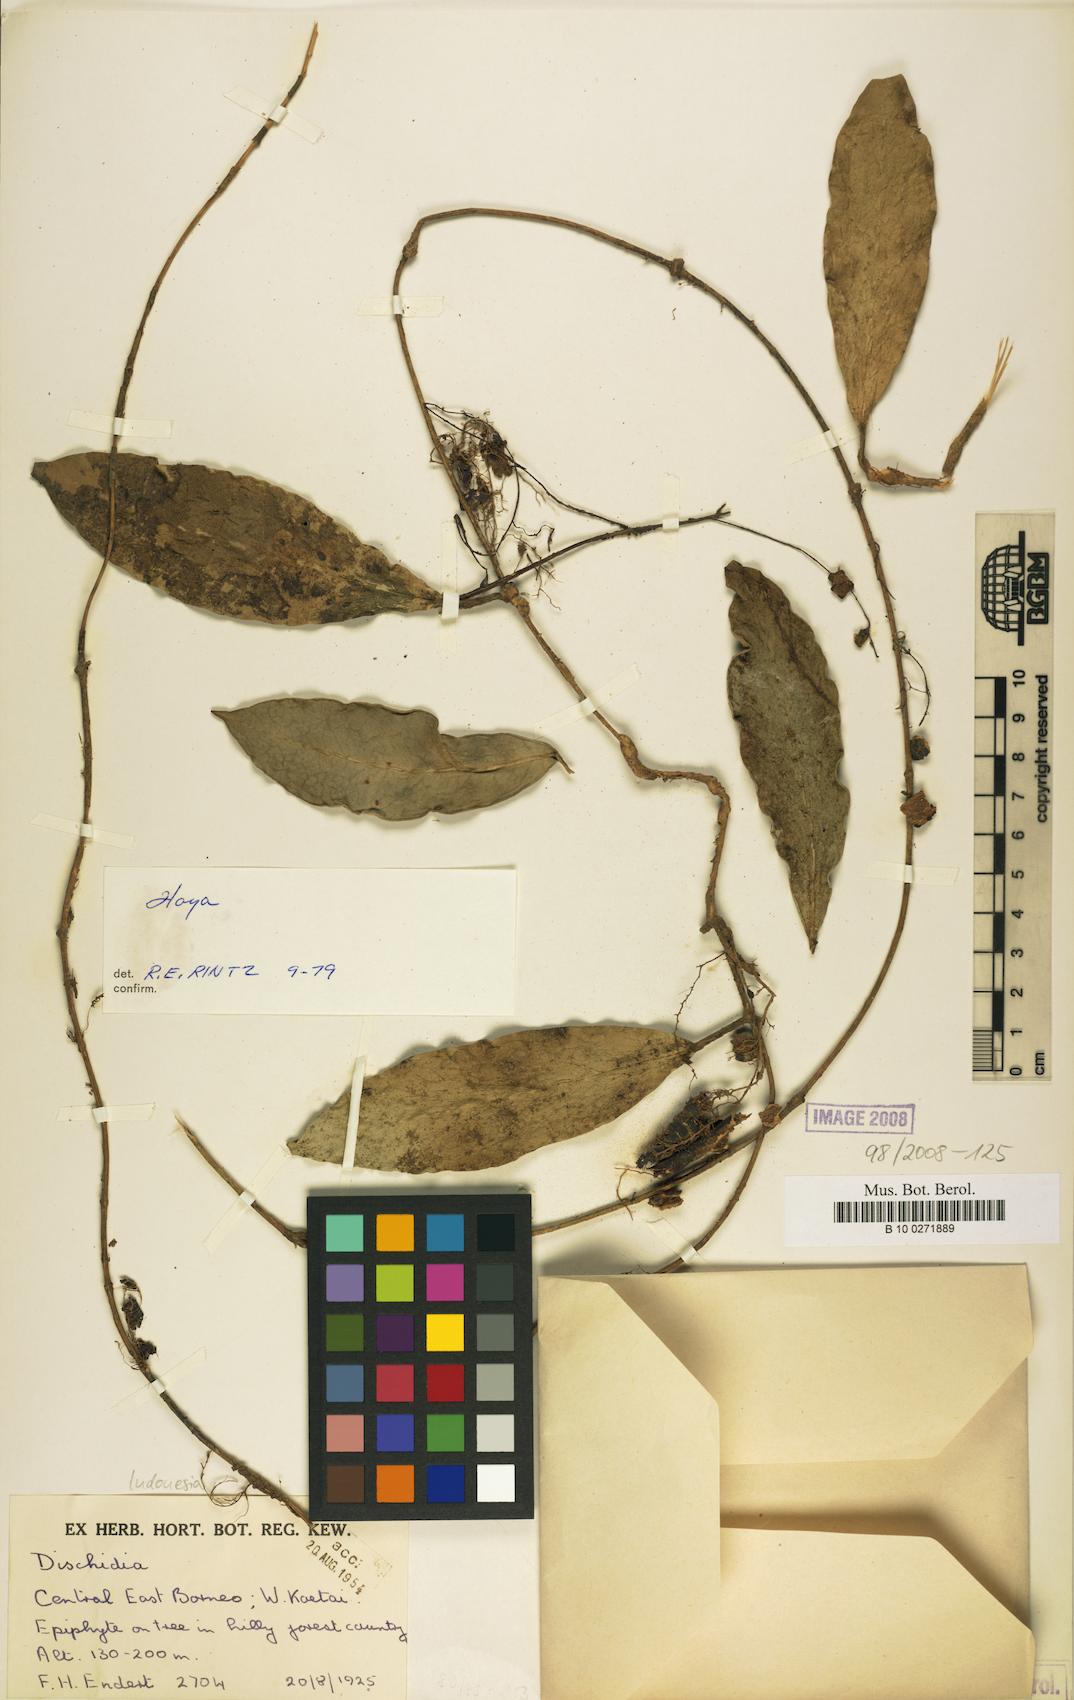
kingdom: Plantae
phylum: Tracheophyta
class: Magnoliopsida
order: Gentianales
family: Apocynaceae
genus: Hoya
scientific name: Hoya
